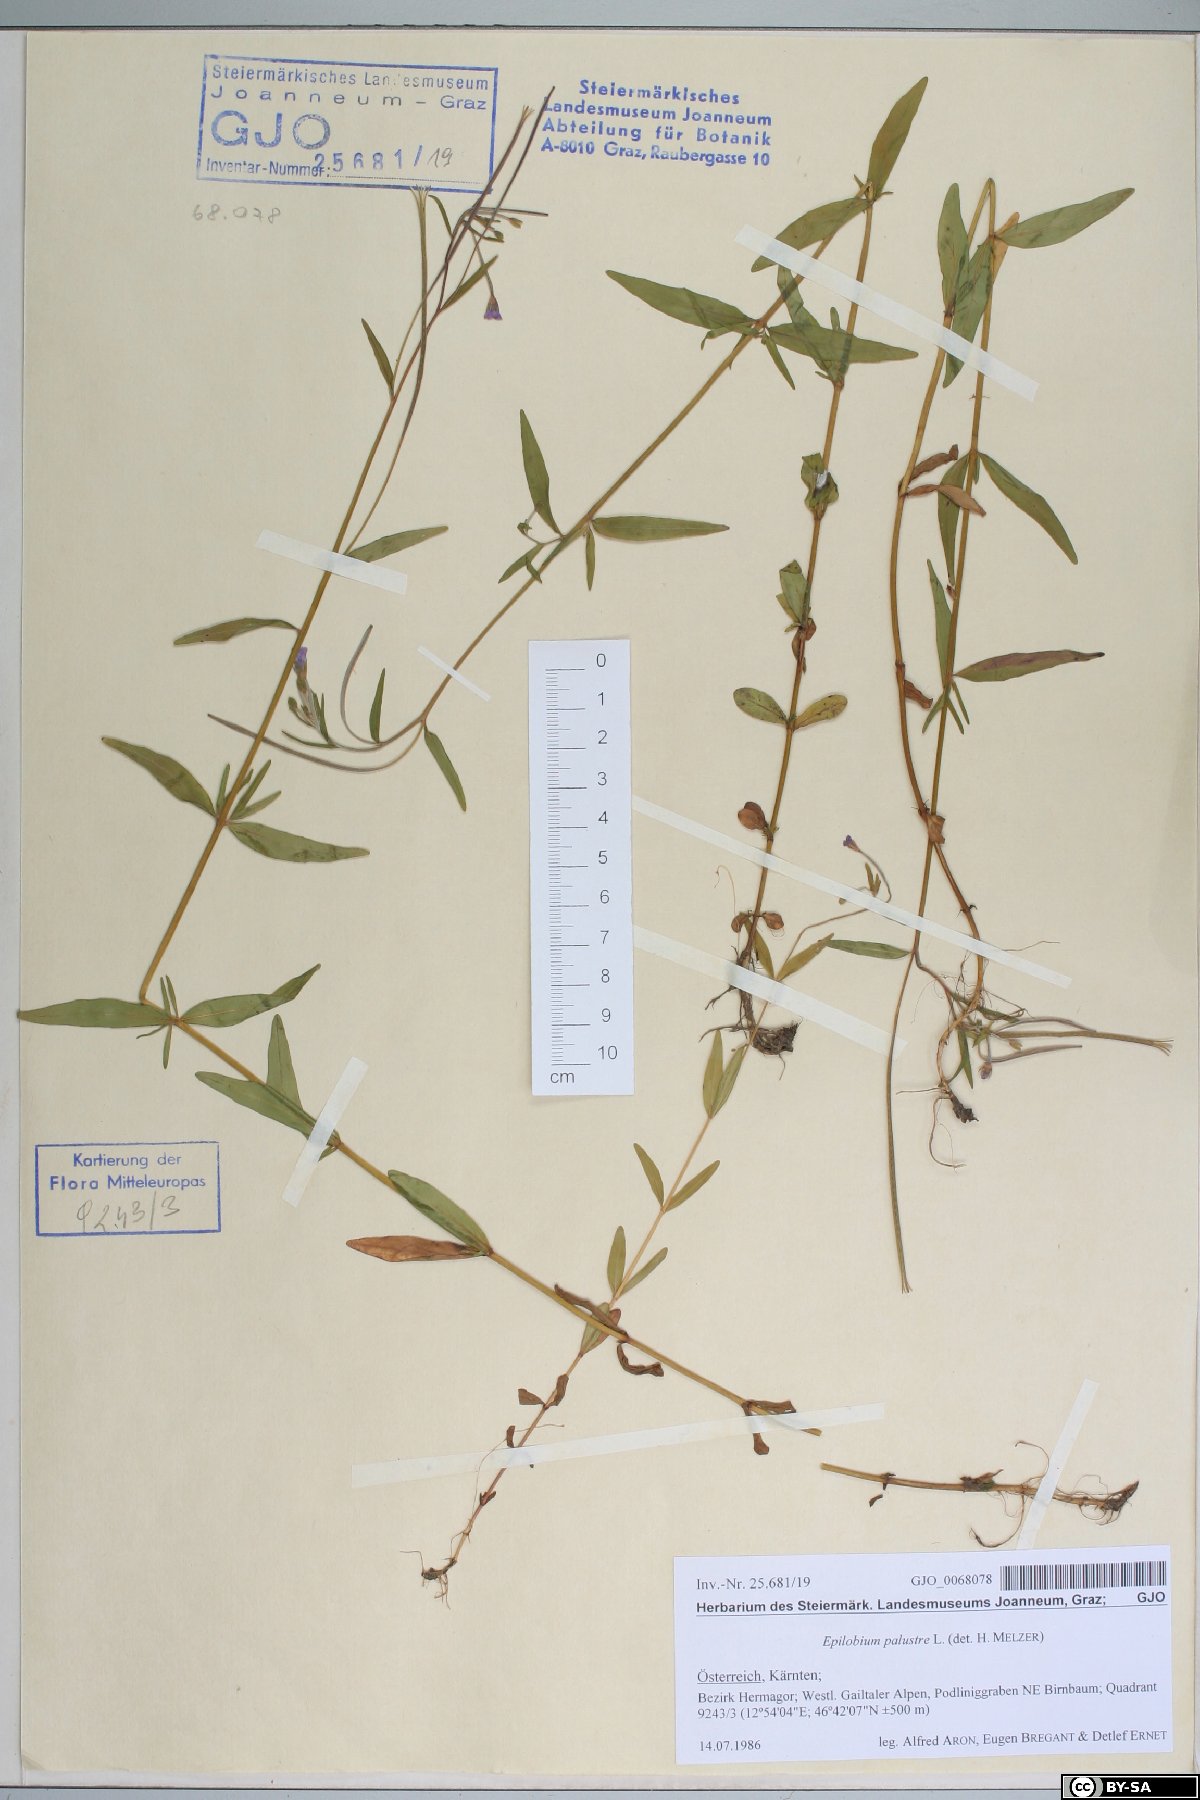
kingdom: Plantae
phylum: Tracheophyta
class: Magnoliopsida
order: Myrtales
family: Onagraceae
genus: Epilobium
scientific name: Epilobium palustre
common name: Marsh willowherb
